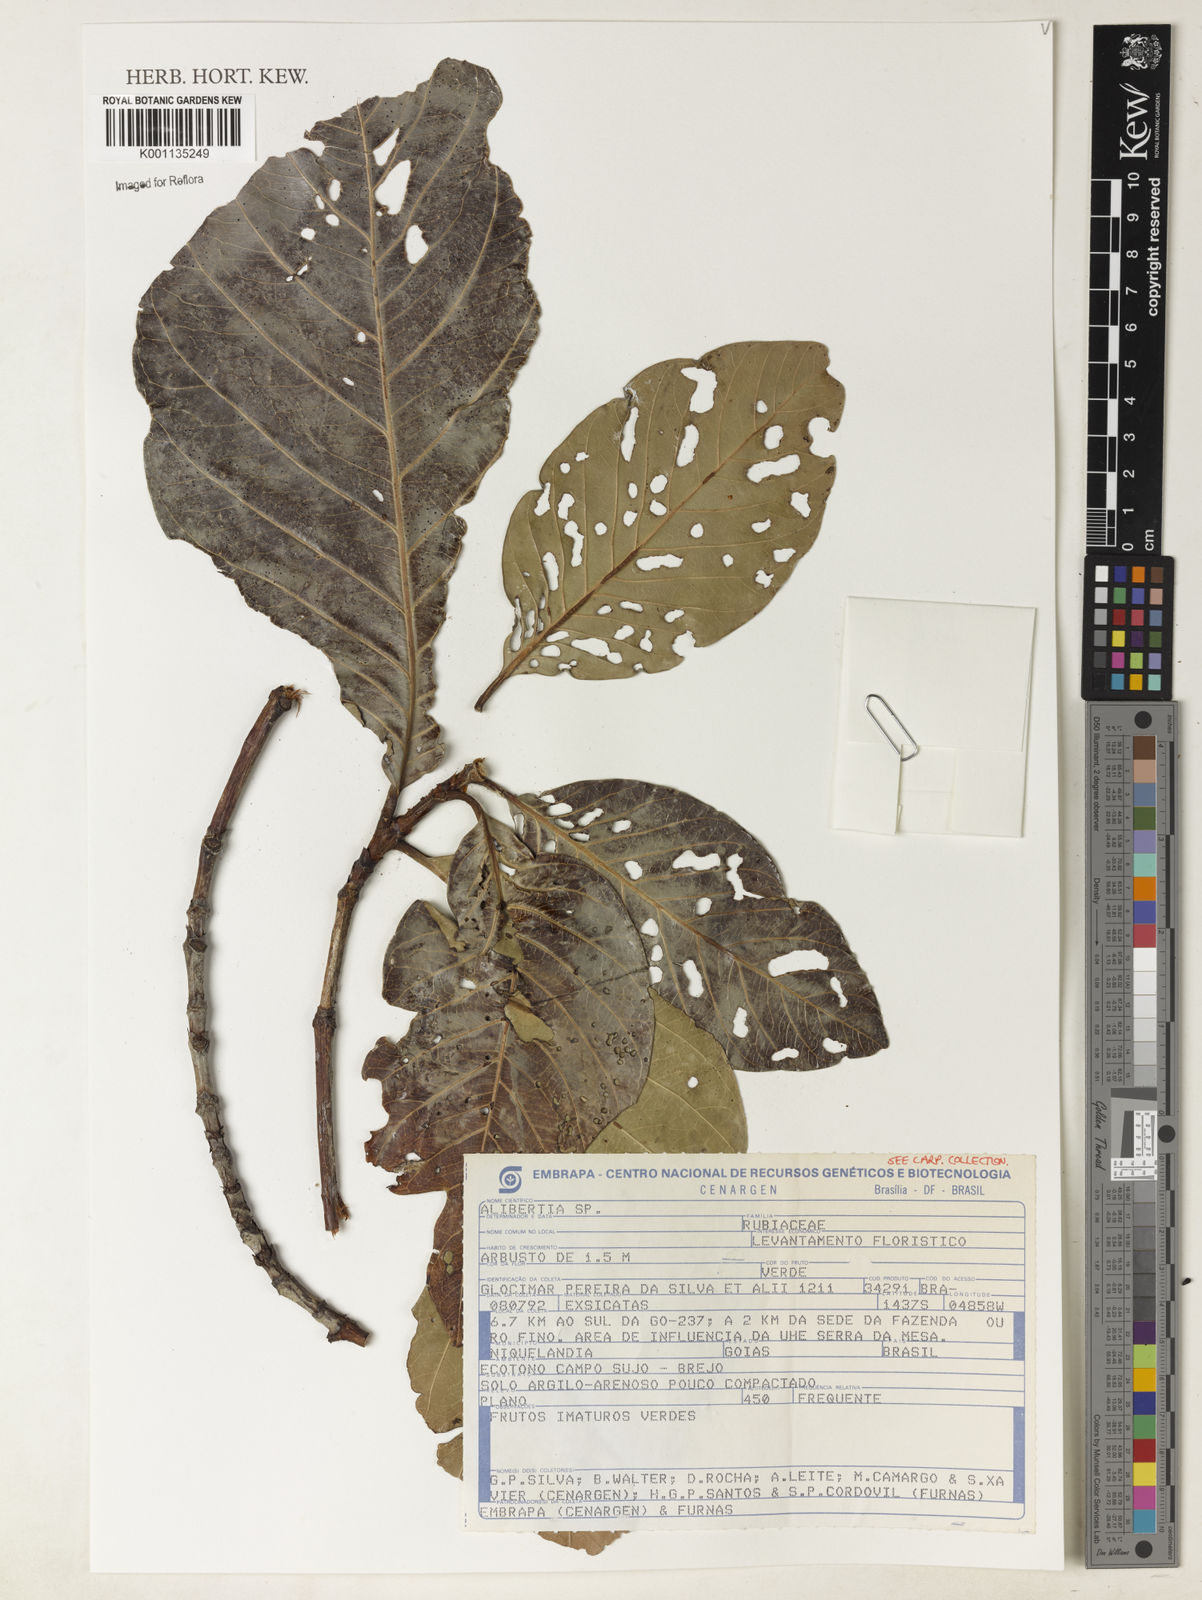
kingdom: Plantae
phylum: Tracheophyta
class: Magnoliopsida
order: Gentianales
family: Rubiaceae
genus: Alibertia
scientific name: Alibertia edulis
